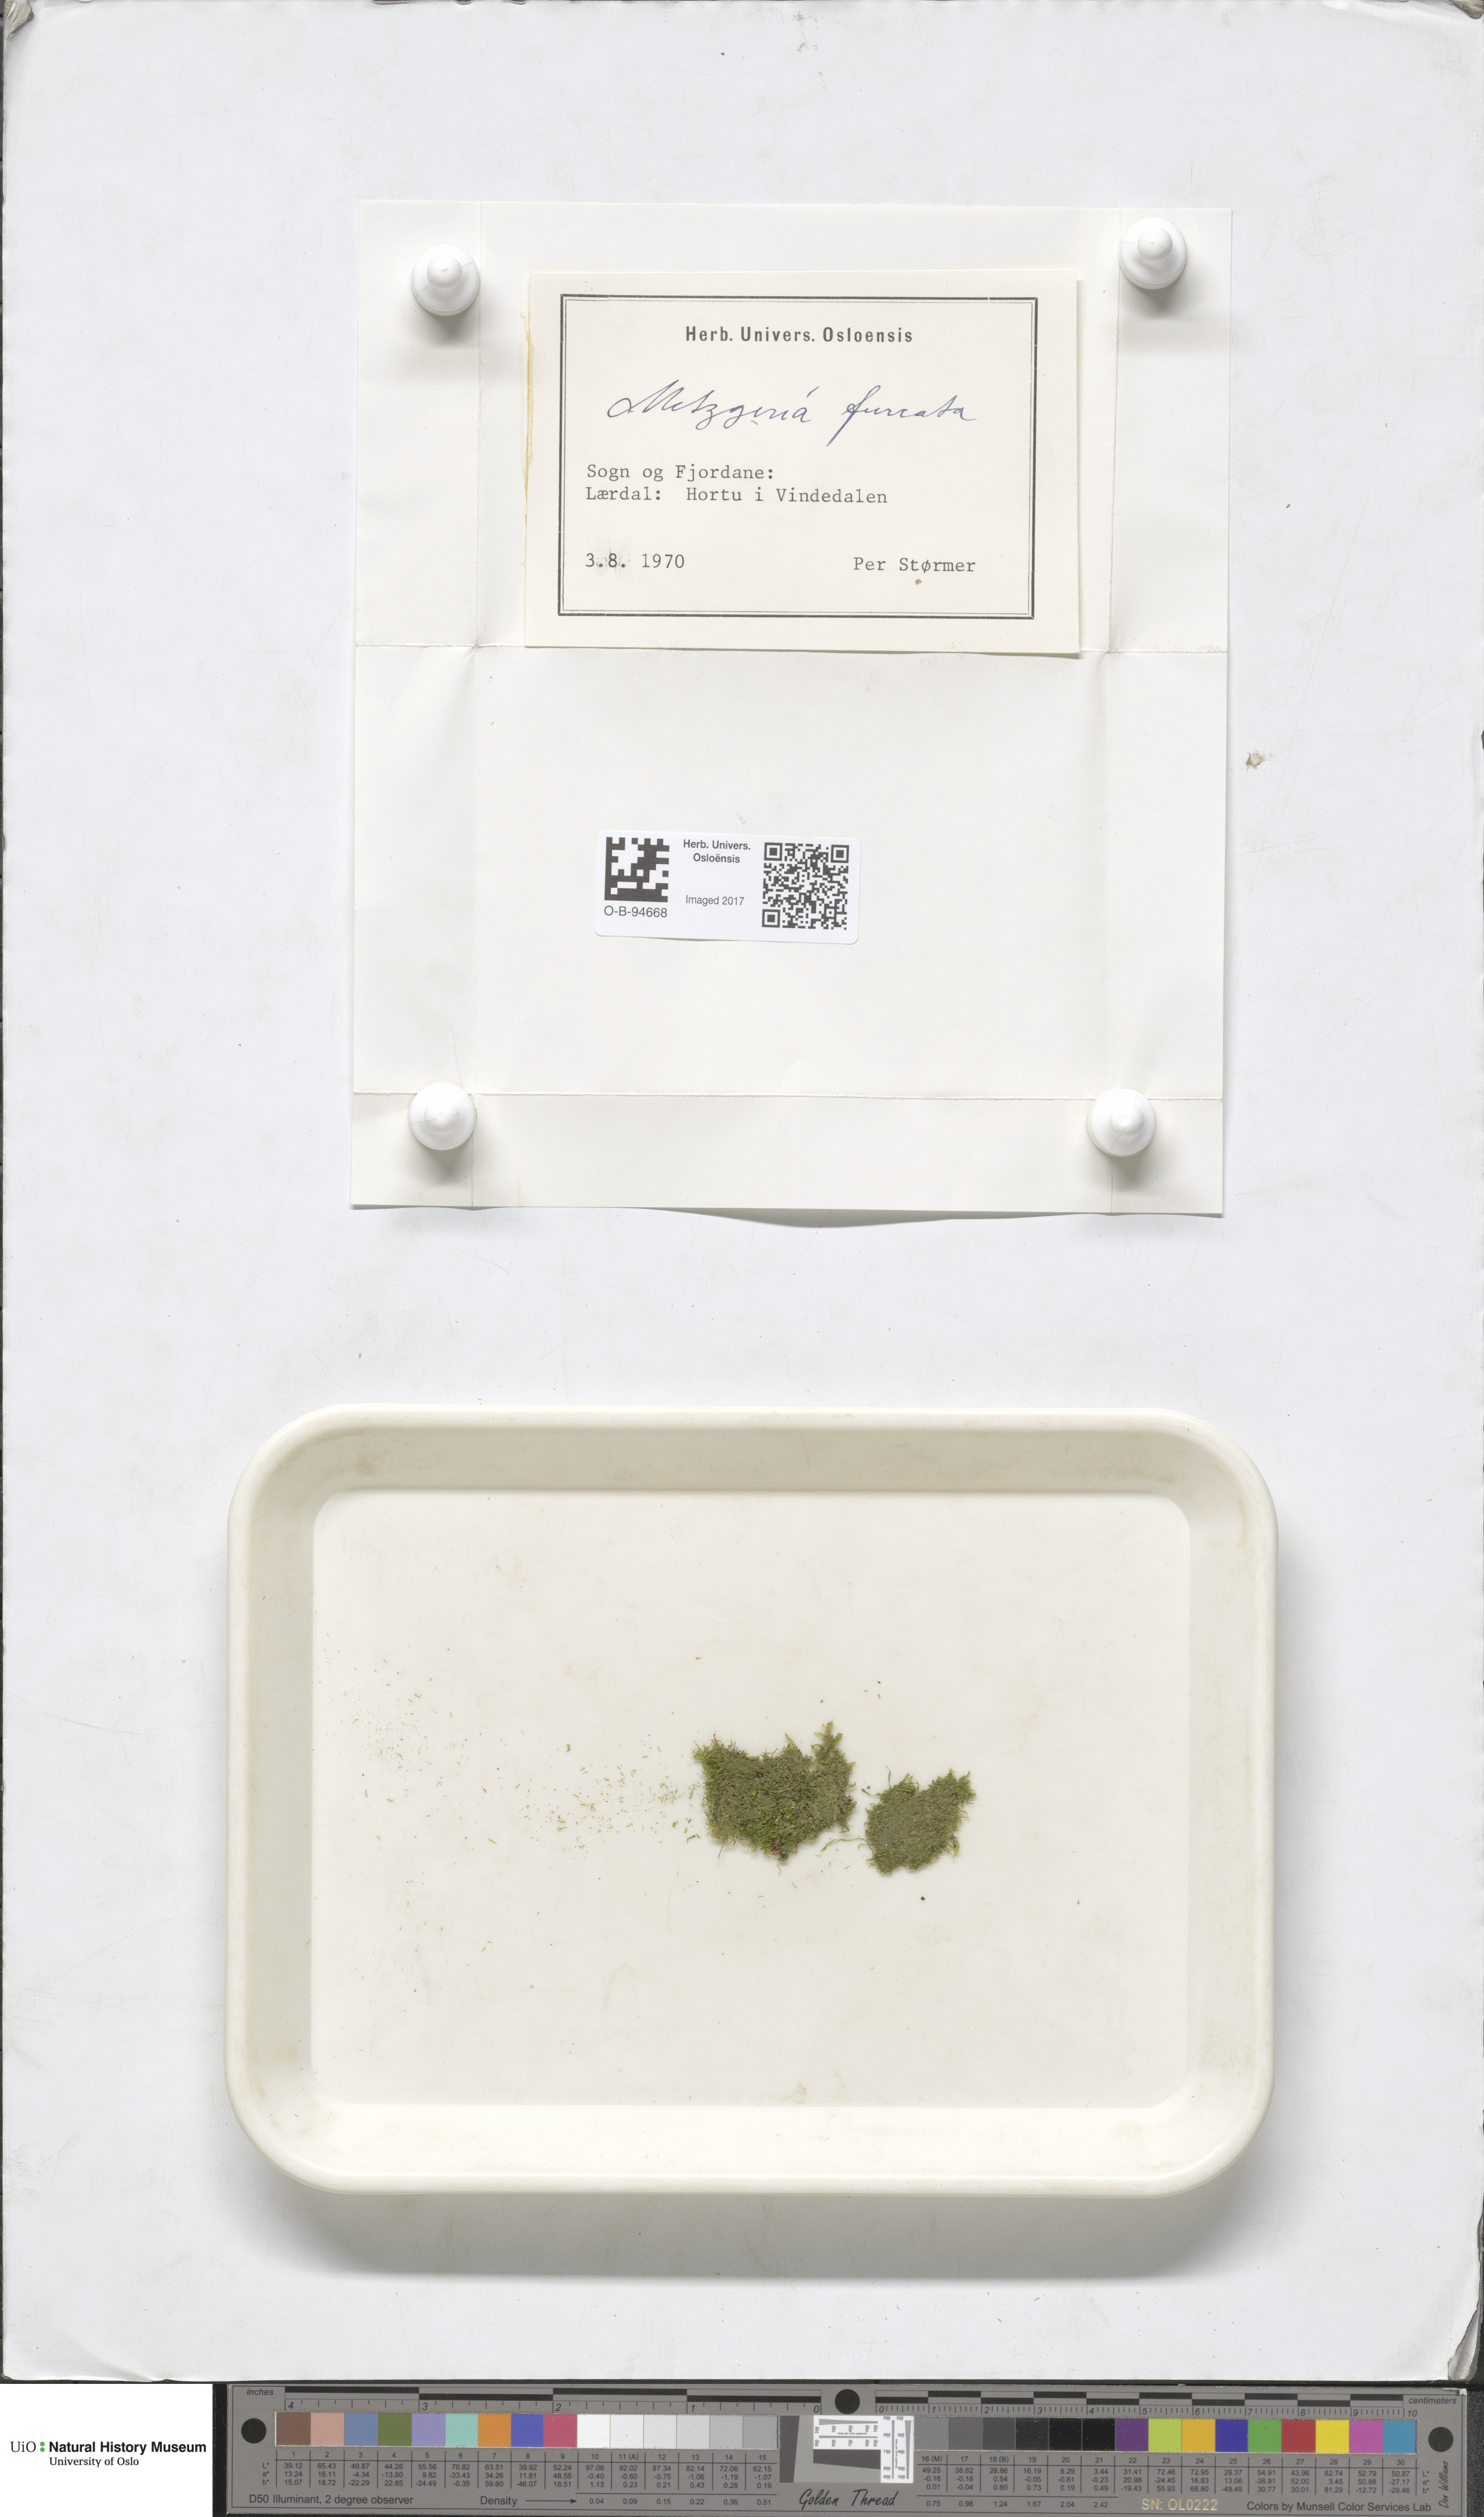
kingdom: Plantae
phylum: Marchantiophyta
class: Jungermanniopsida
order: Metzgeriales
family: Metzgeriaceae
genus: Metzgeria
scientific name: Metzgeria furcata
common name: Forked veilwort
